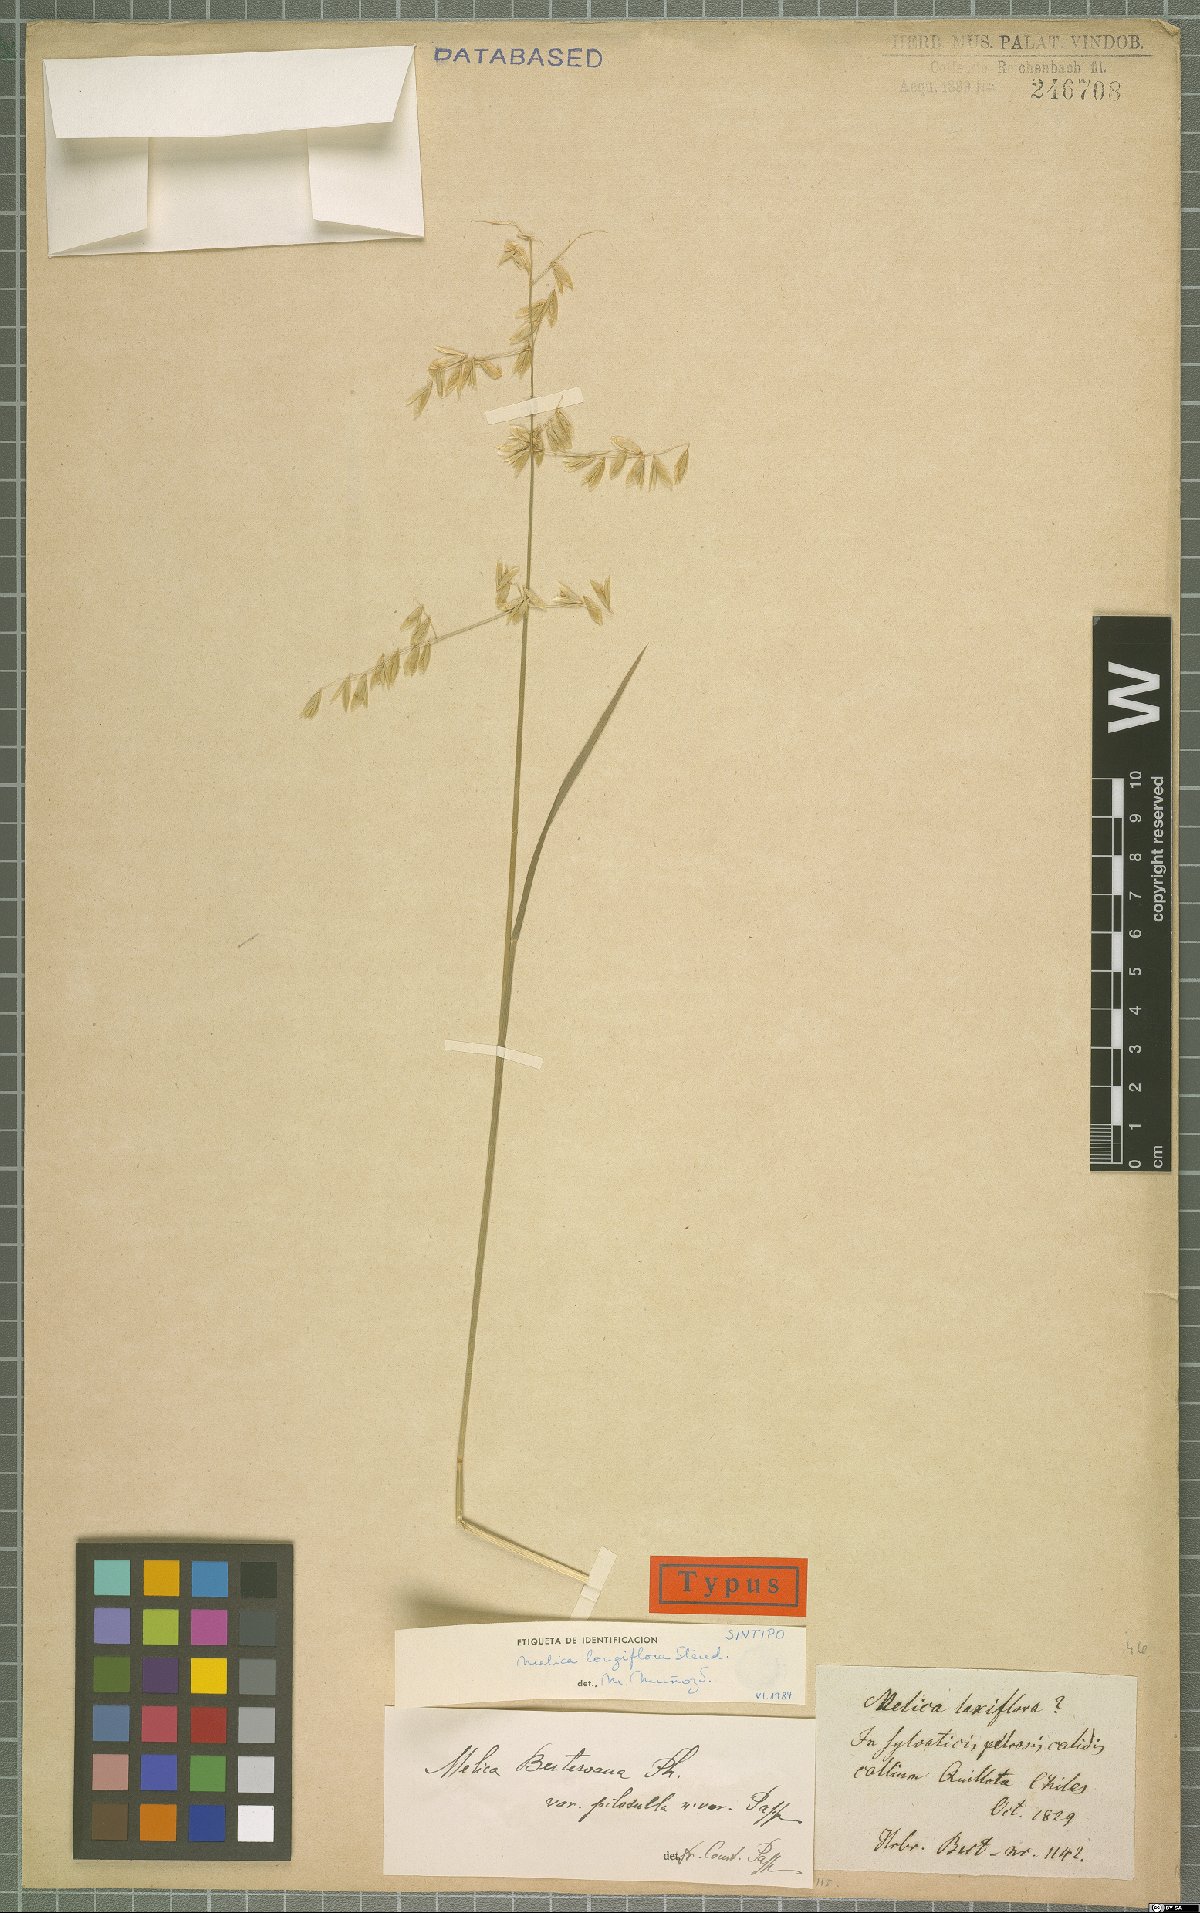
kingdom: Plantae
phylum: Tracheophyta
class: Liliopsida
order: Poales
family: Poaceae
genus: Melica
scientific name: Melica longiflora
